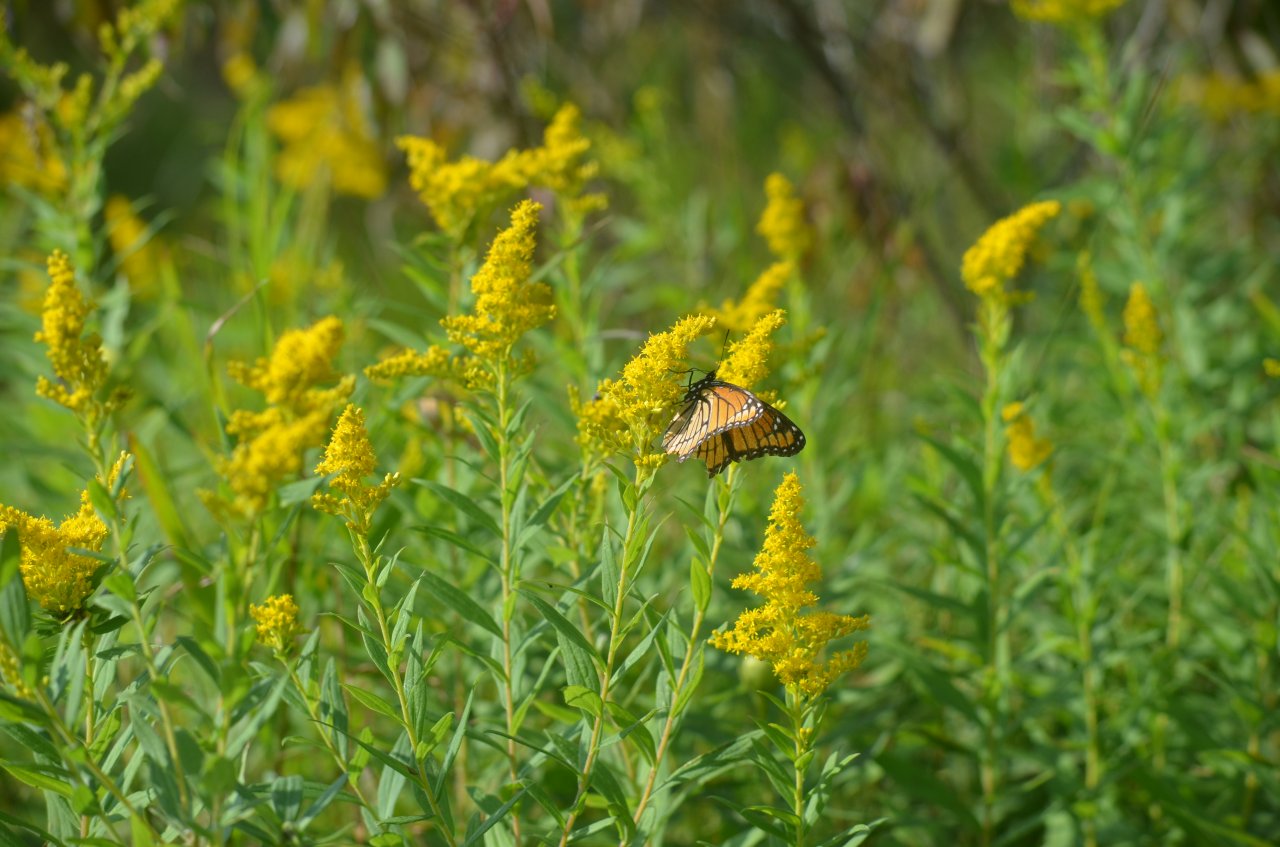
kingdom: Animalia
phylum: Arthropoda
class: Insecta
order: Lepidoptera
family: Nymphalidae
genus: Limenitis
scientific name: Limenitis archippus
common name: Viceroy
